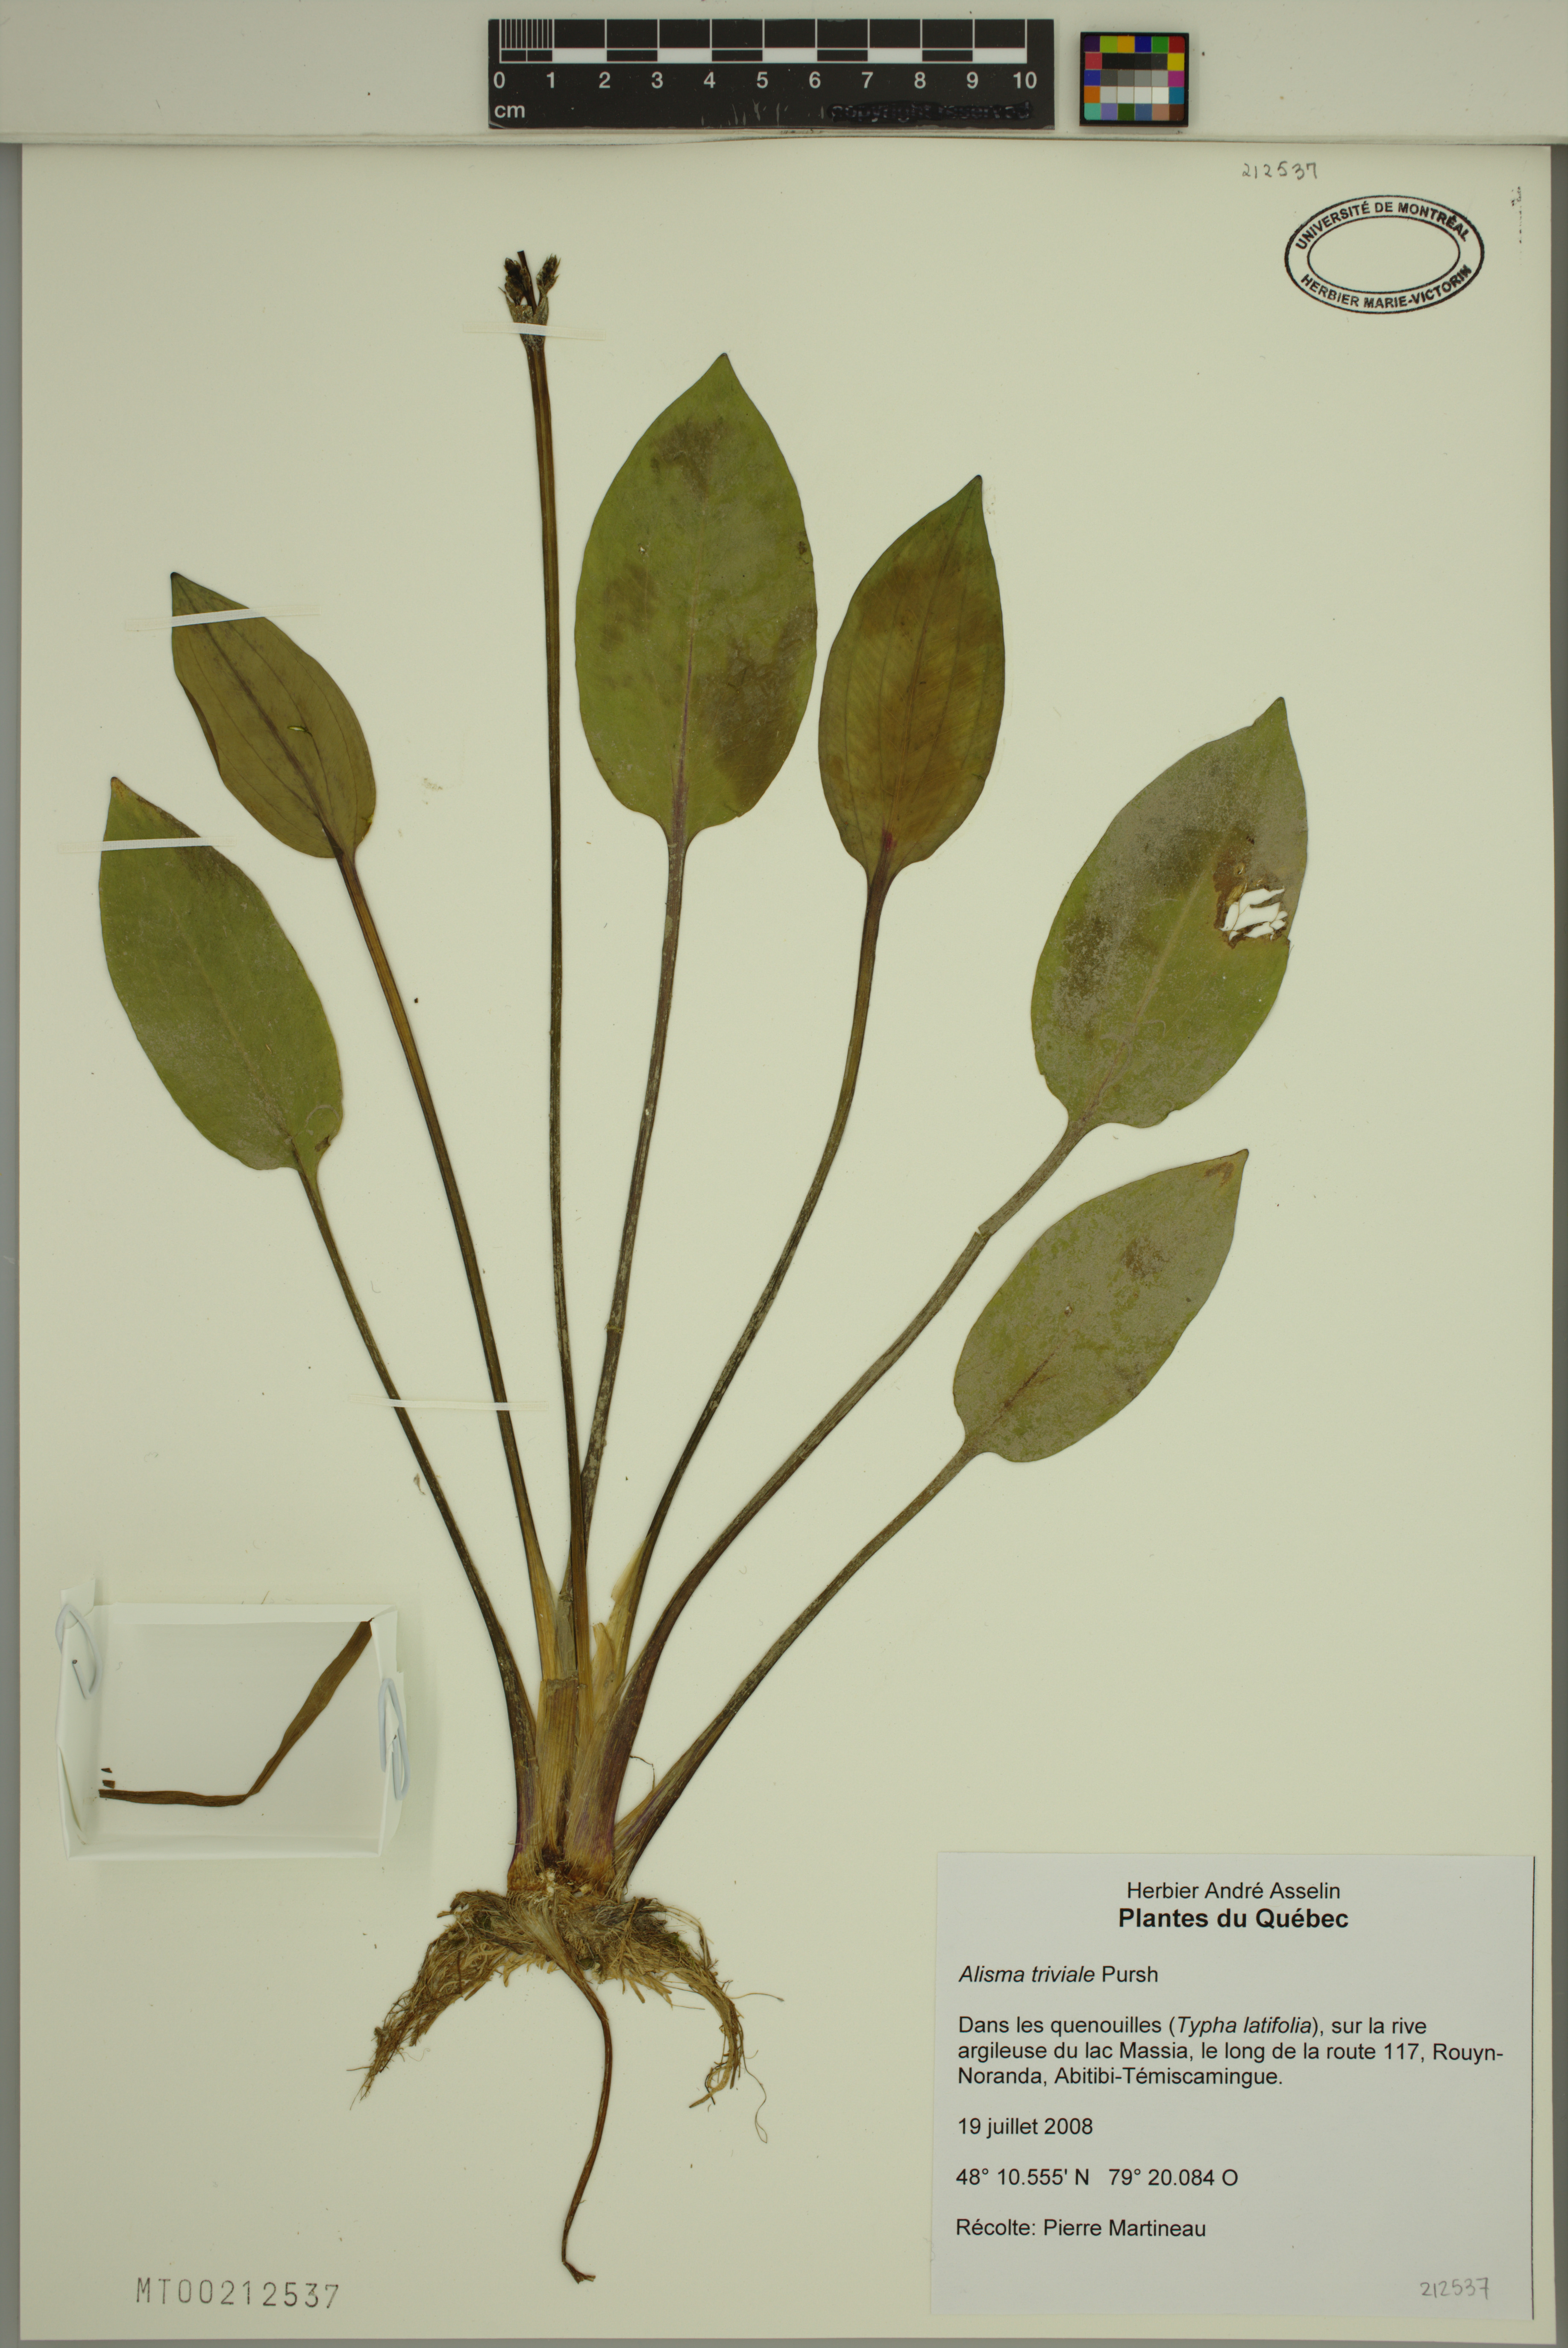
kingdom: Plantae
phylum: Tracheophyta
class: Liliopsida
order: Alismatales
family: Alismataceae
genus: Alisma
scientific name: Alisma triviale
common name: Northern water-plantain
